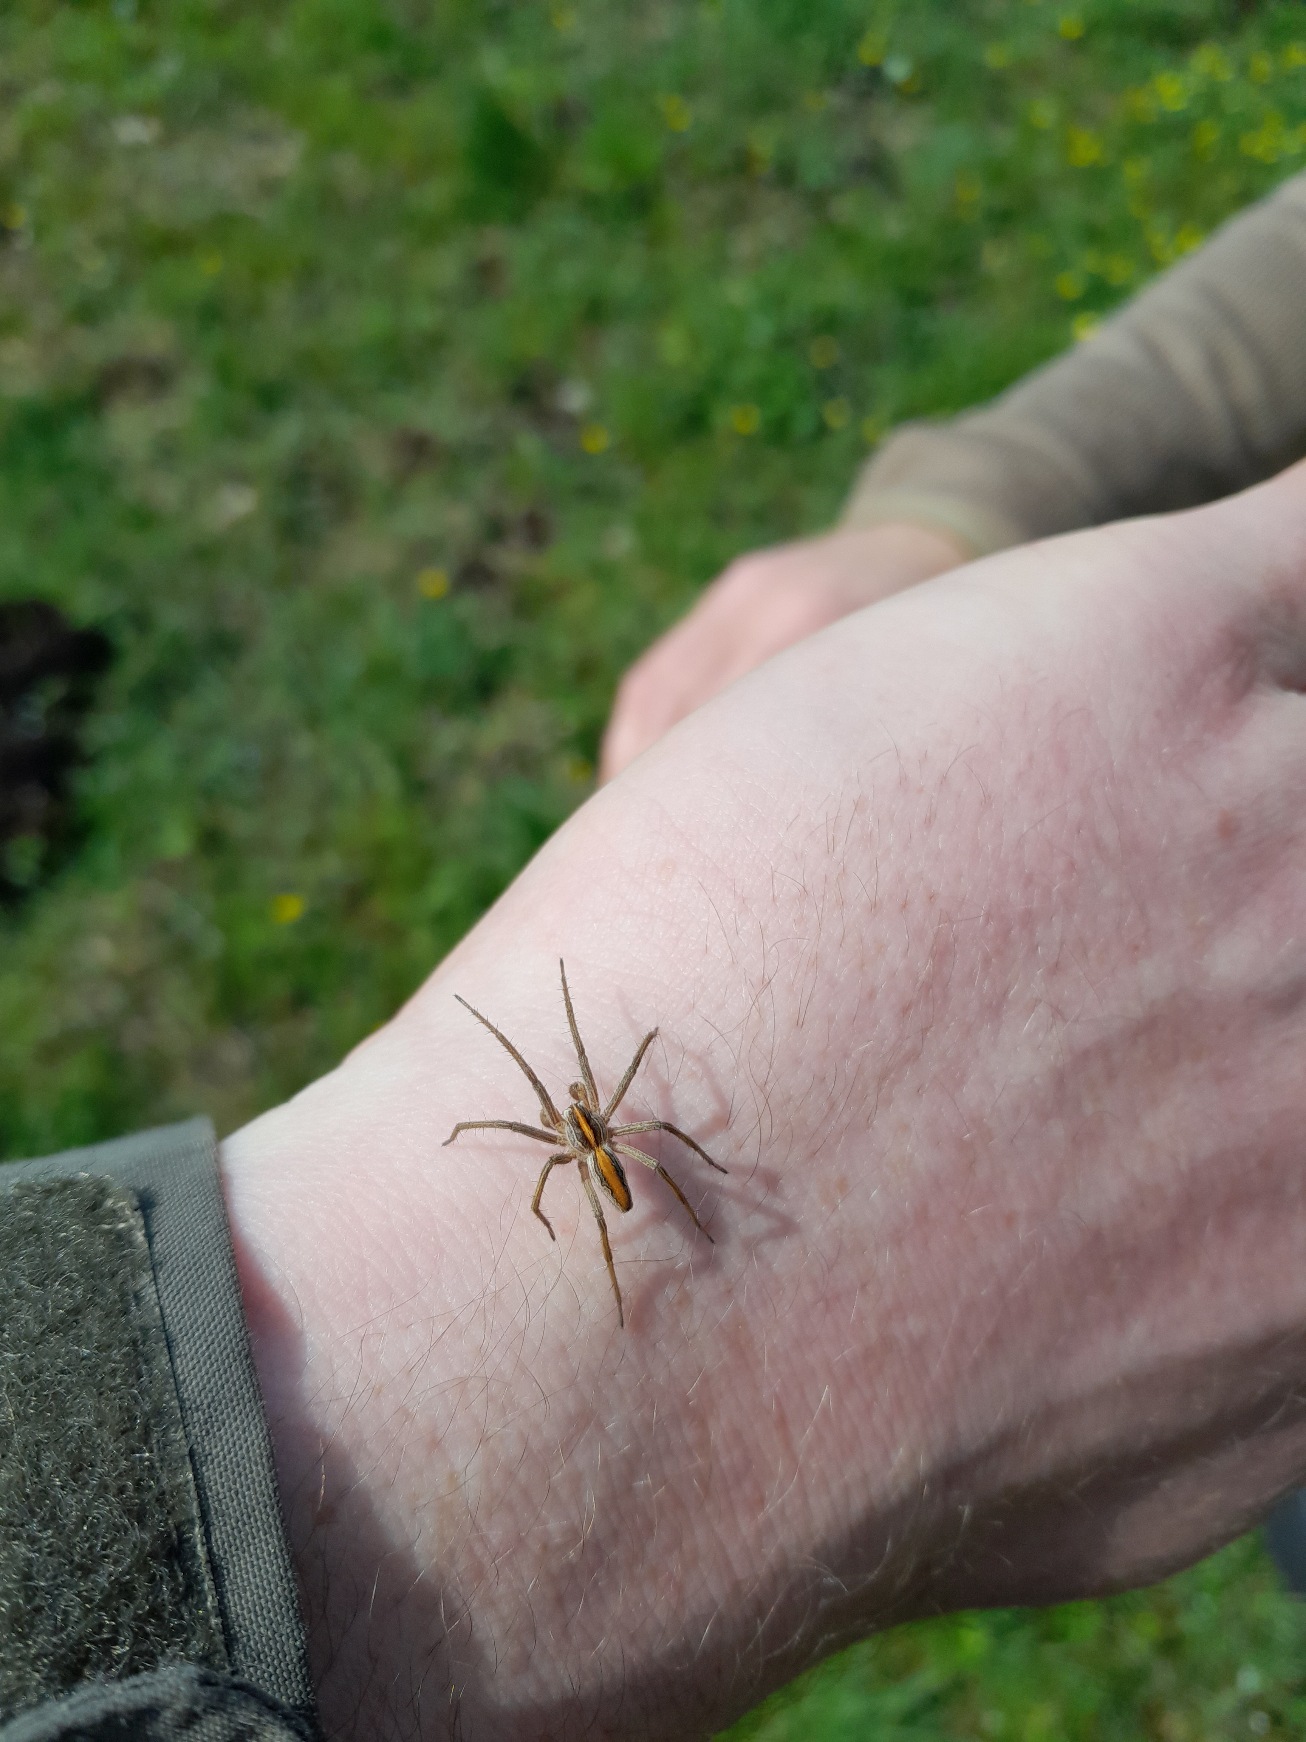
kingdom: Animalia
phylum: Arthropoda
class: Arachnida
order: Araneae
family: Pisauridae
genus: Pisaura
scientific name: Pisaura mirabilis
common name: Almindelig rovedderkop
